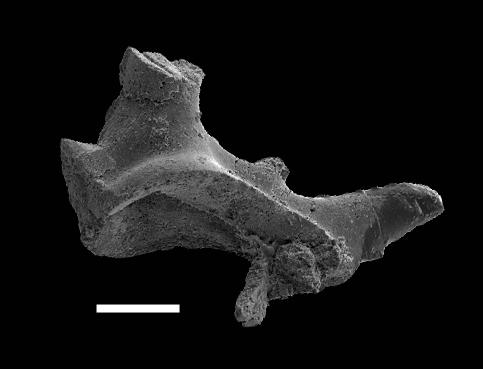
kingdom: Animalia
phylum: Chordata
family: Hibbardellidae
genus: Oulodus
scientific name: Oulodus
